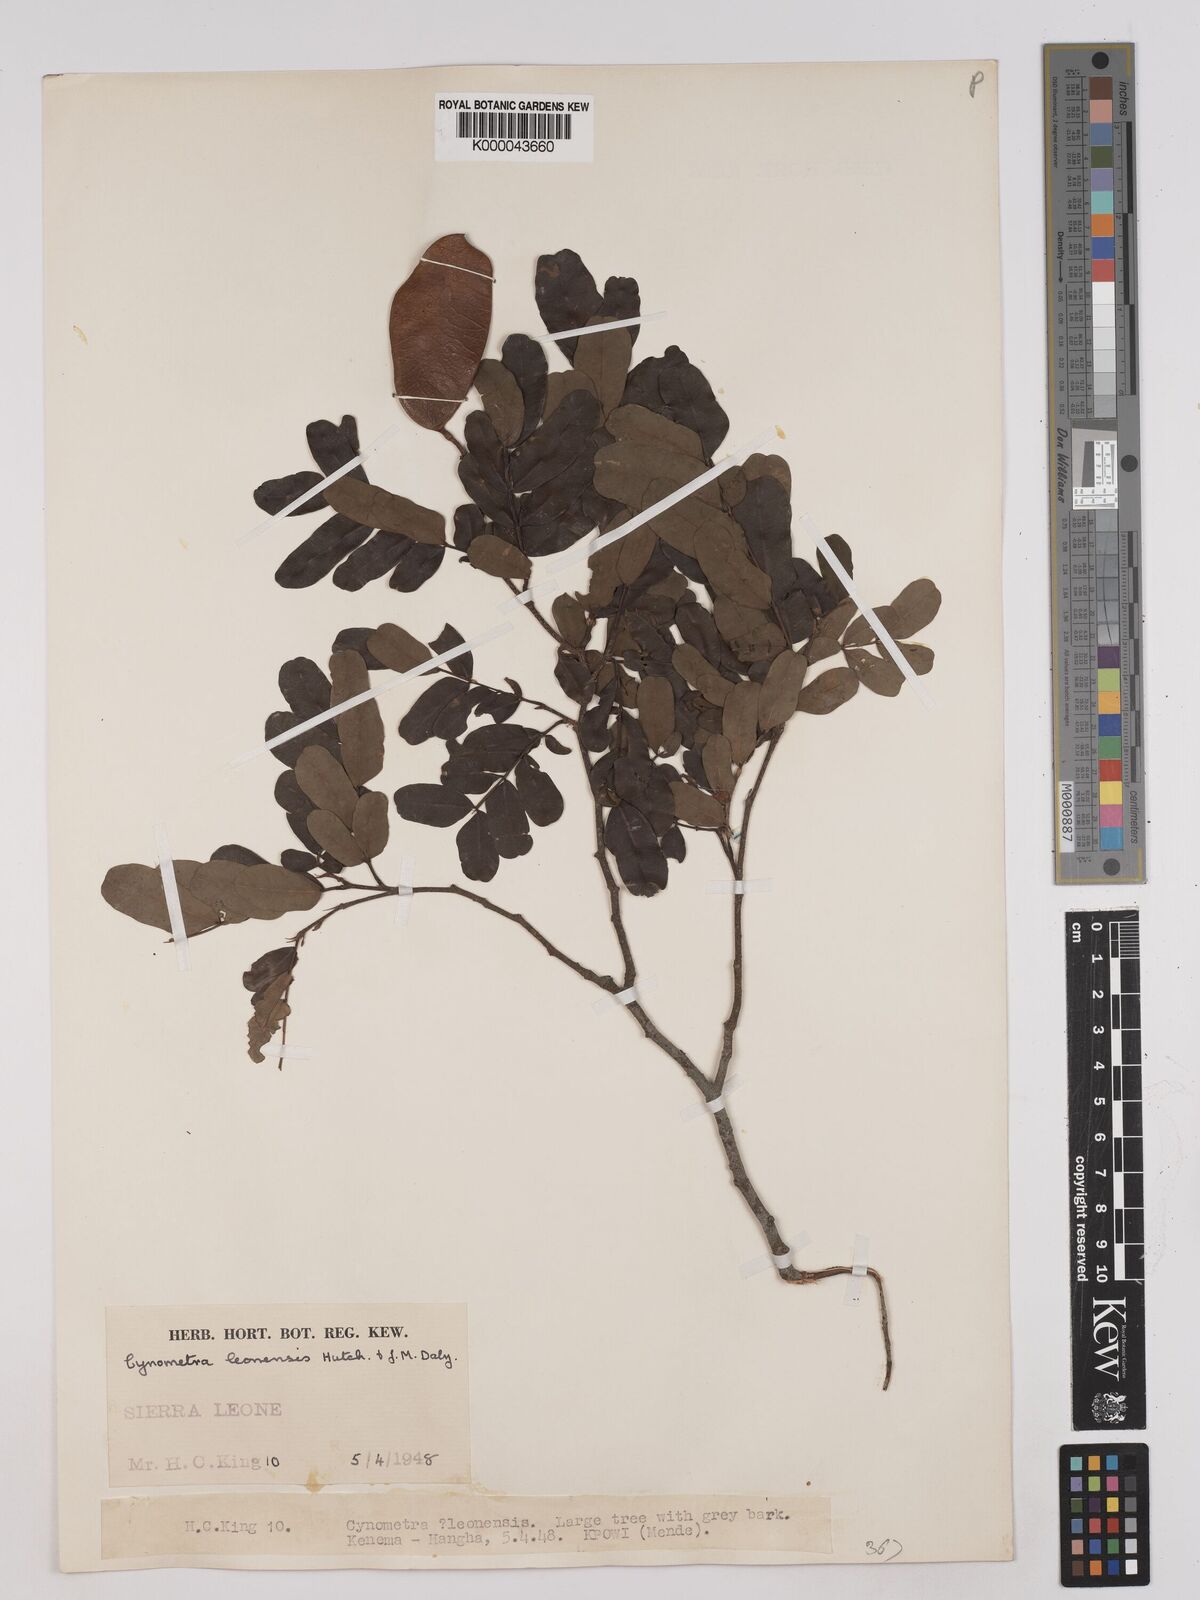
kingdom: Plantae
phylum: Tracheophyta
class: Magnoliopsida
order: Fabales
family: Fabaceae
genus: Cynometra
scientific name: Cynometra leonensis
